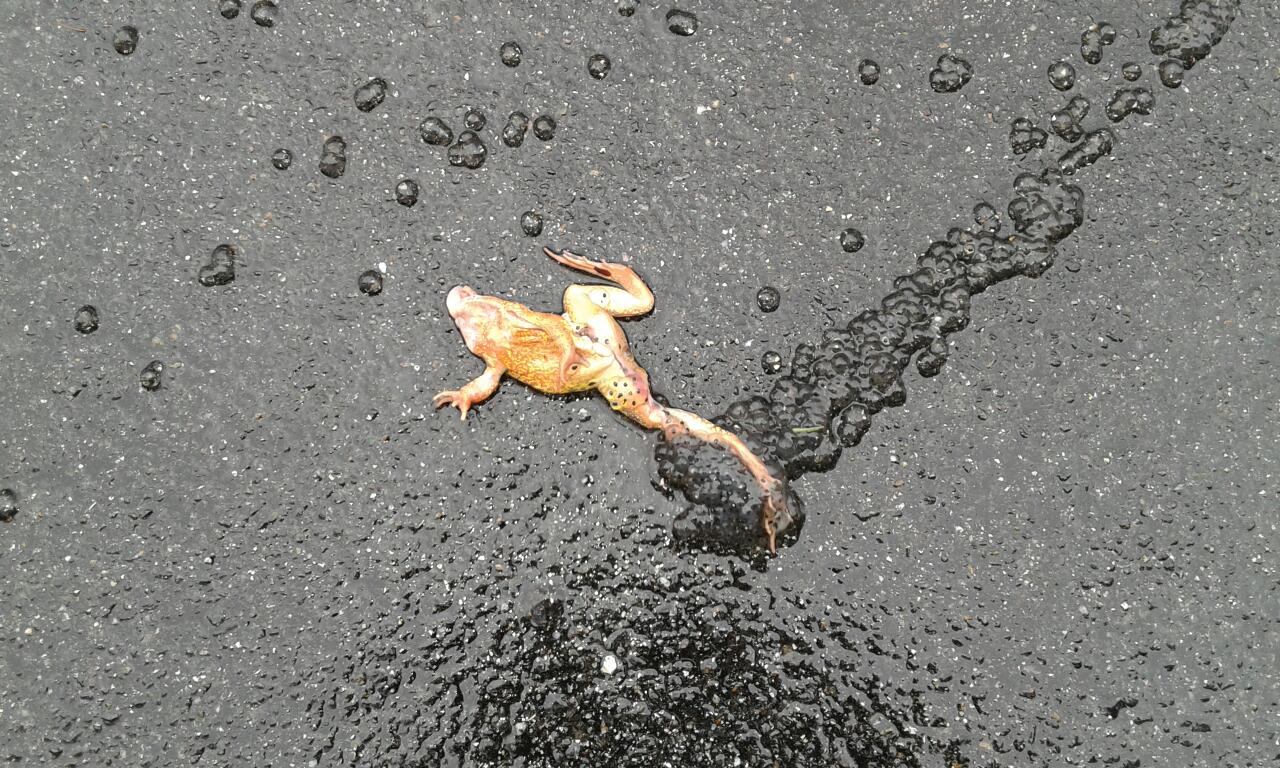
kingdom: Animalia
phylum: Chordata
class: Amphibia
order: Anura
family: Bufonidae
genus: Bufo
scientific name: Bufo bufo
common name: Common toad
